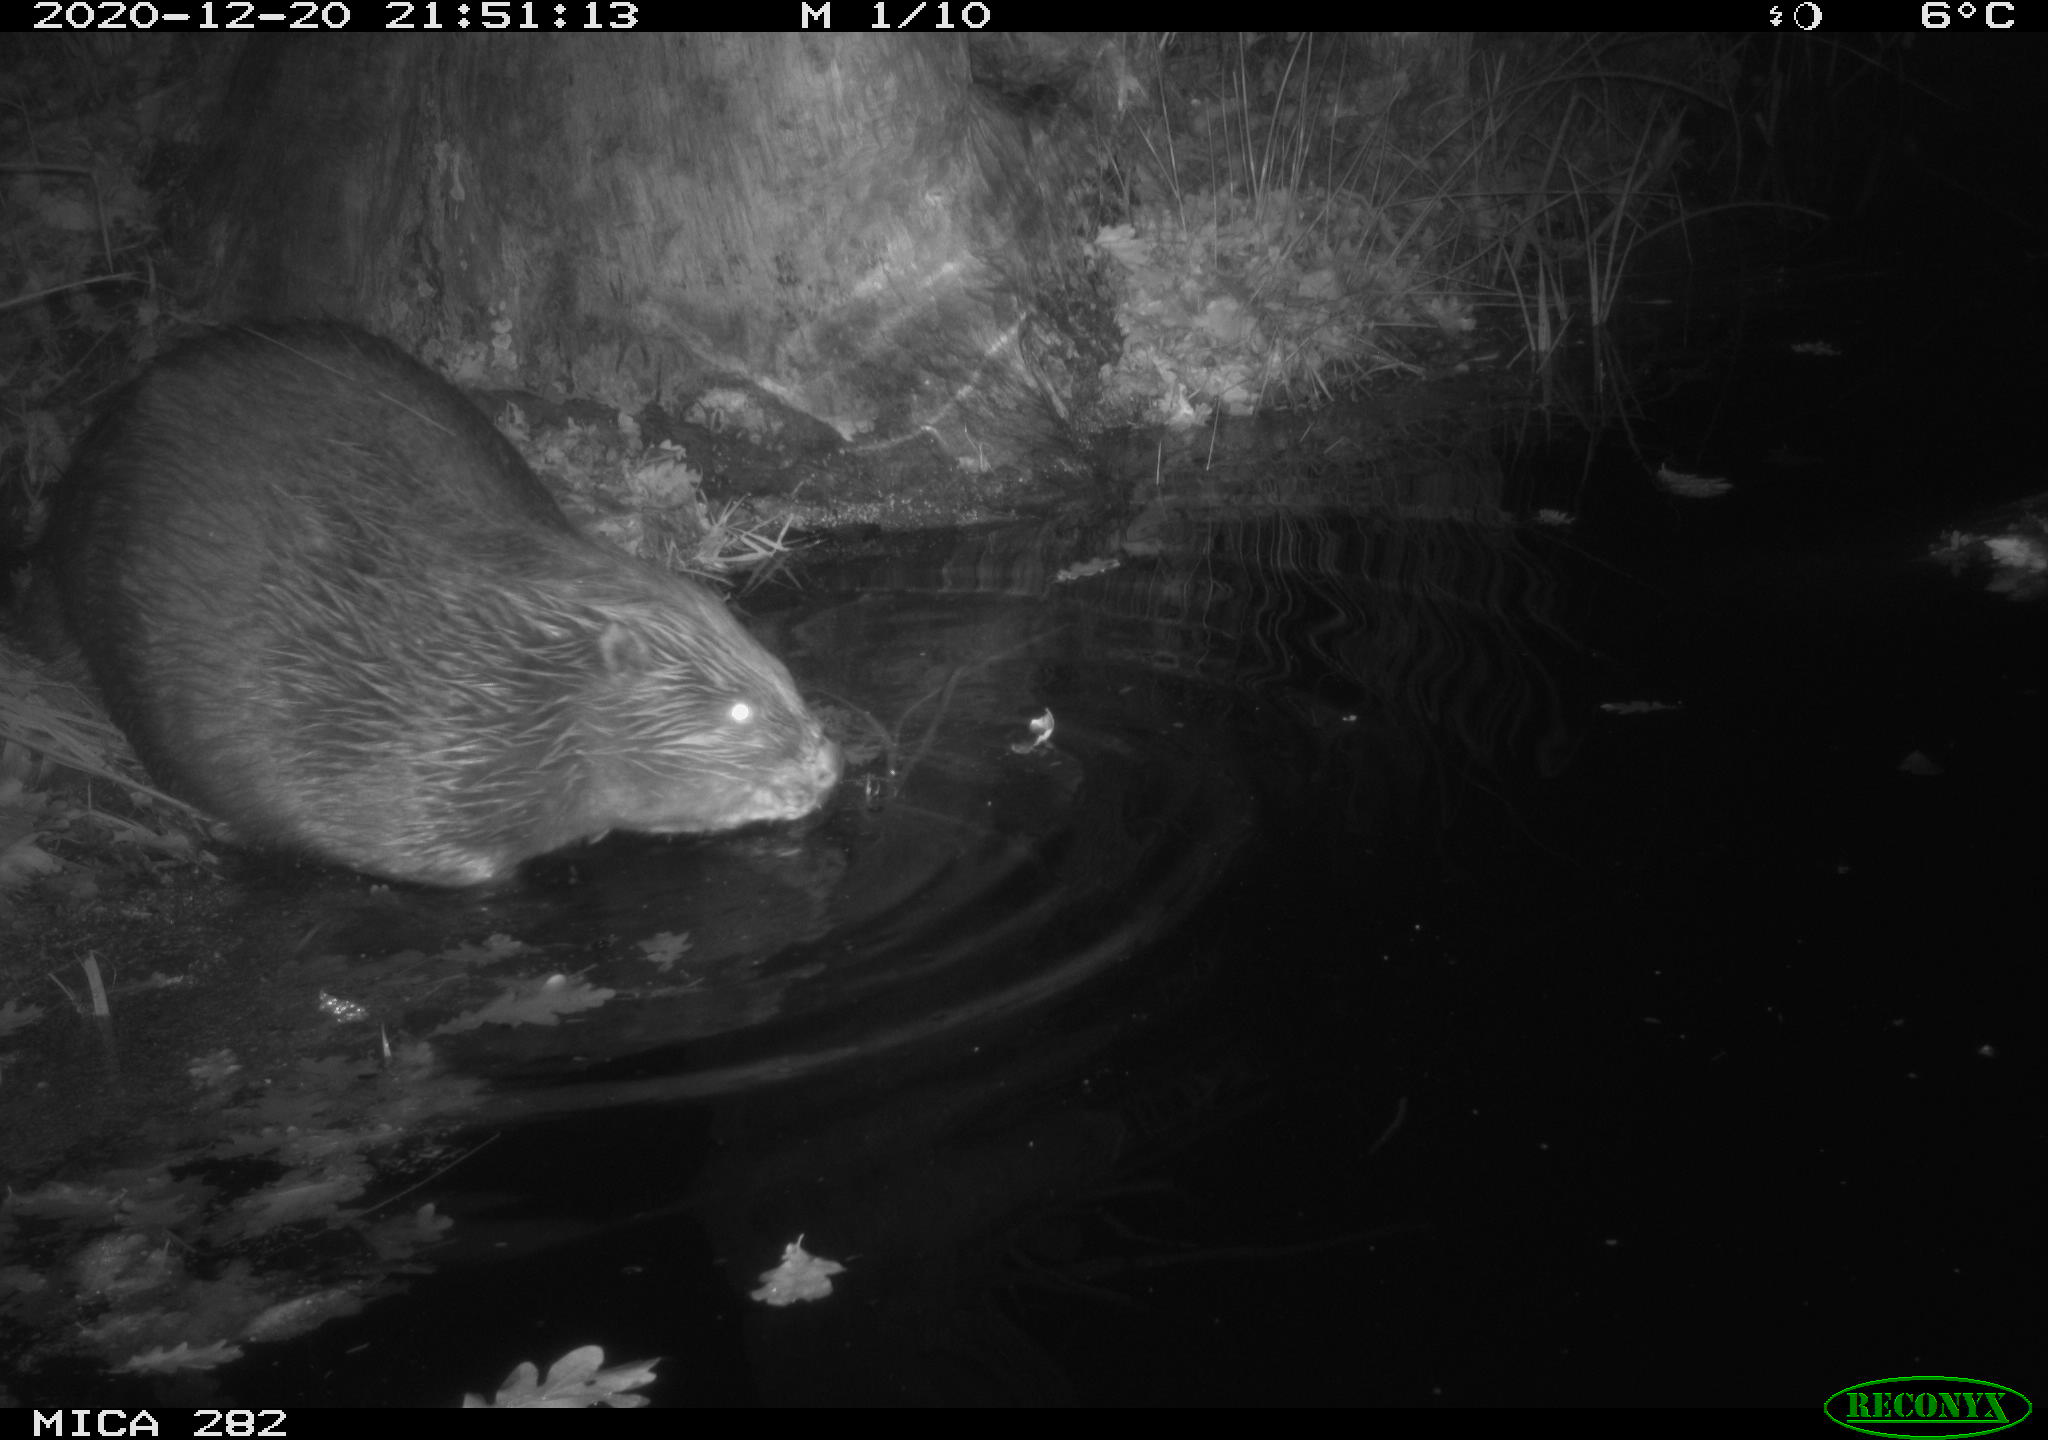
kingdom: Animalia
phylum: Chordata
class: Mammalia
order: Rodentia
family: Castoridae
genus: Castor
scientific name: Castor fiber
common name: Eurasian beaver
